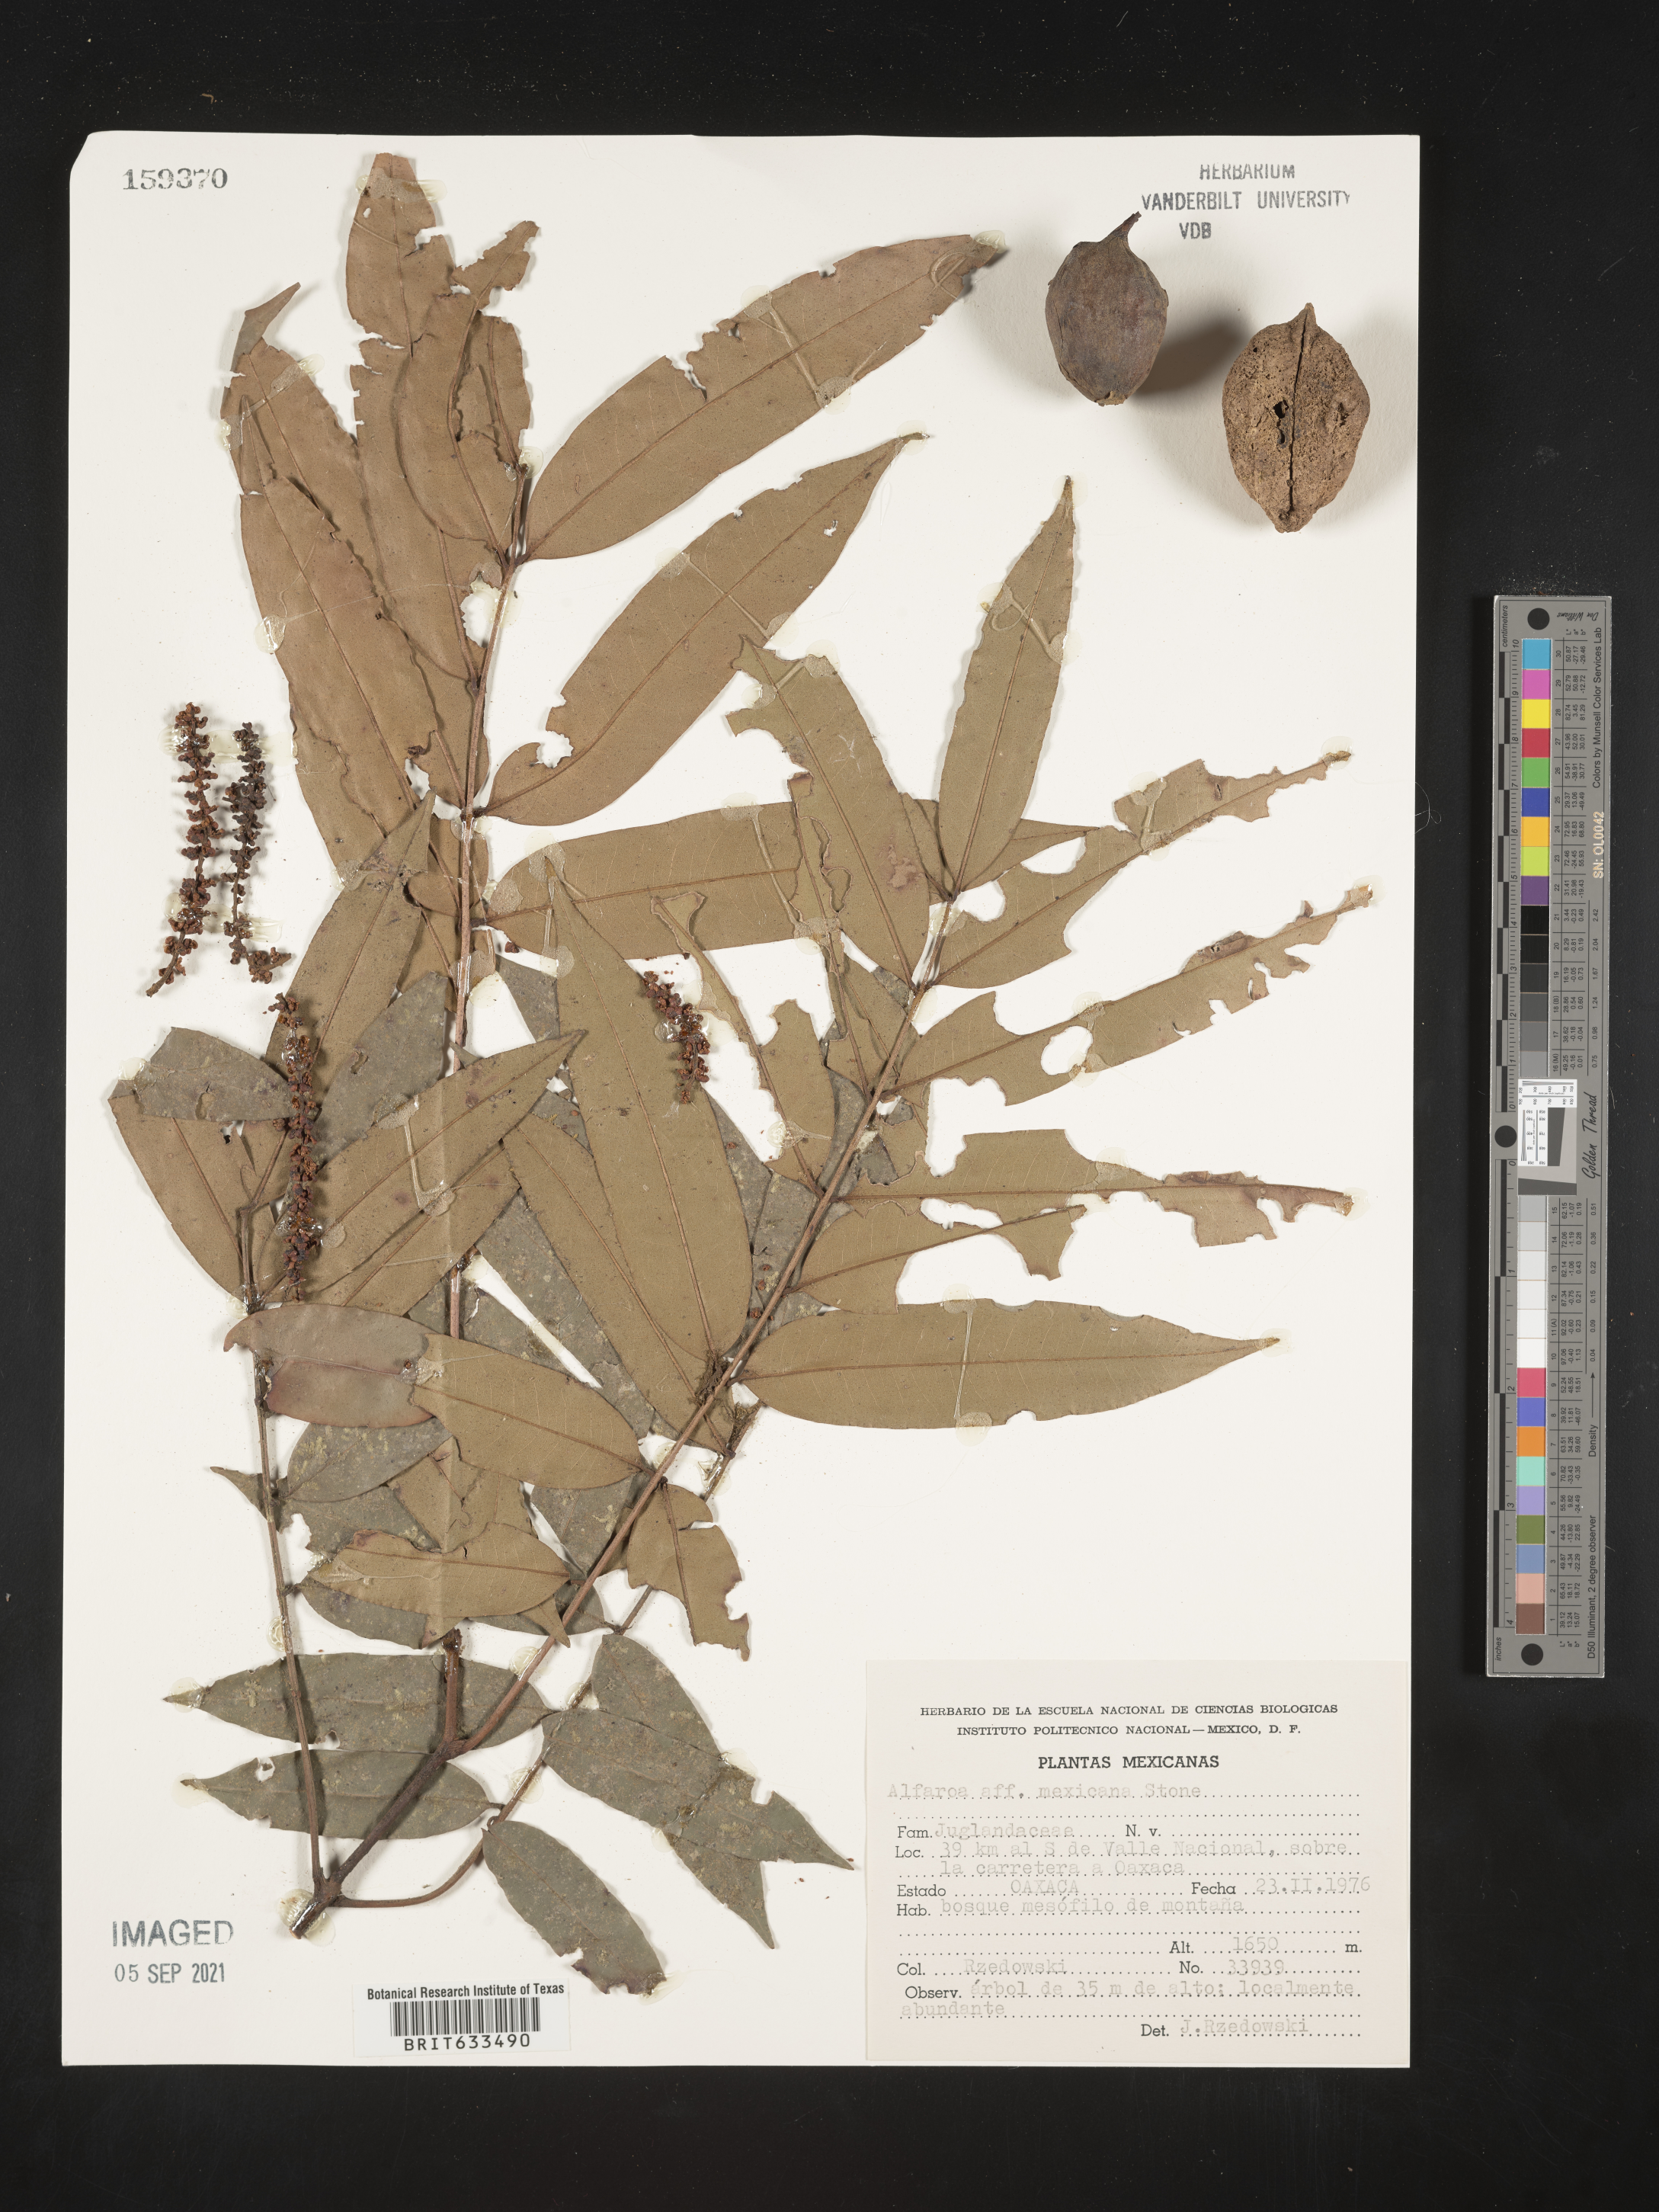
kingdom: Plantae
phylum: Tracheophyta
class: Magnoliopsida
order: Fagales
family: Juglandaceae
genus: Alfaroa
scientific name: Alfaroa
